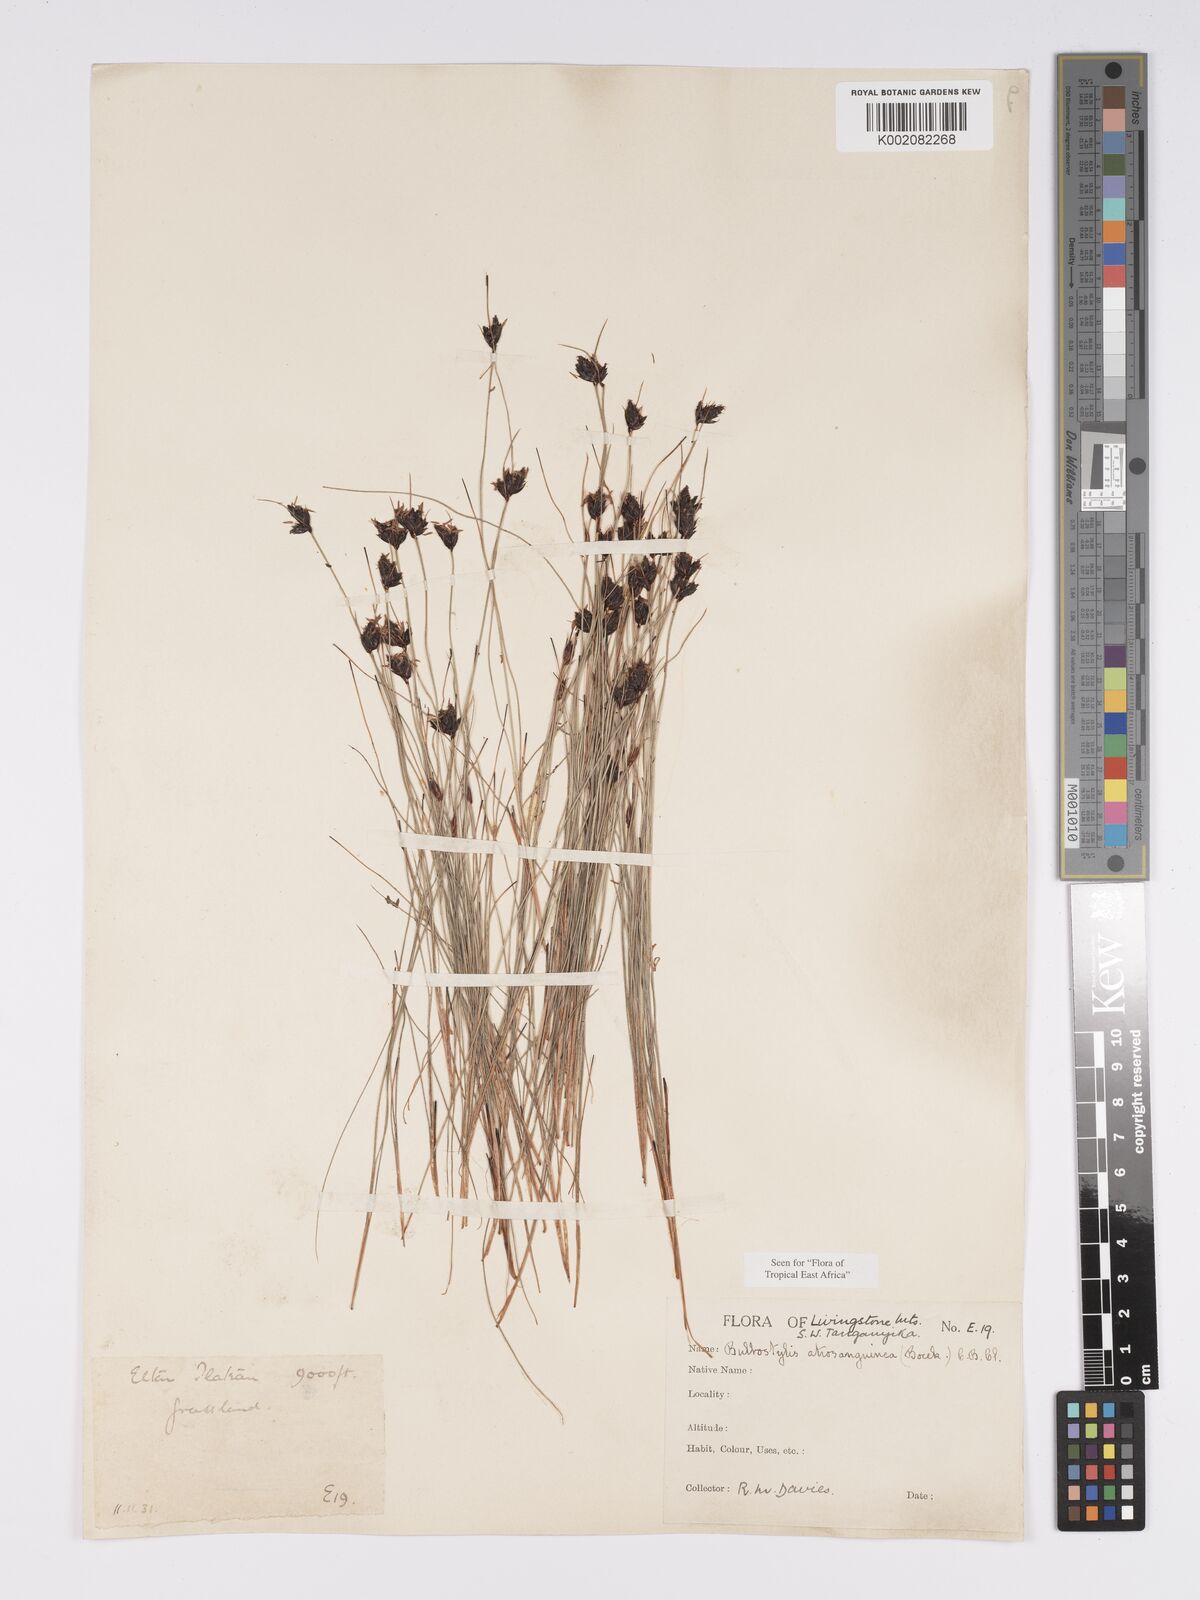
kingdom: Plantae
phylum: Tracheophyta
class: Liliopsida
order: Poales
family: Cyperaceae
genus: Bulbostylis
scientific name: Bulbostylis atrosanguinea
